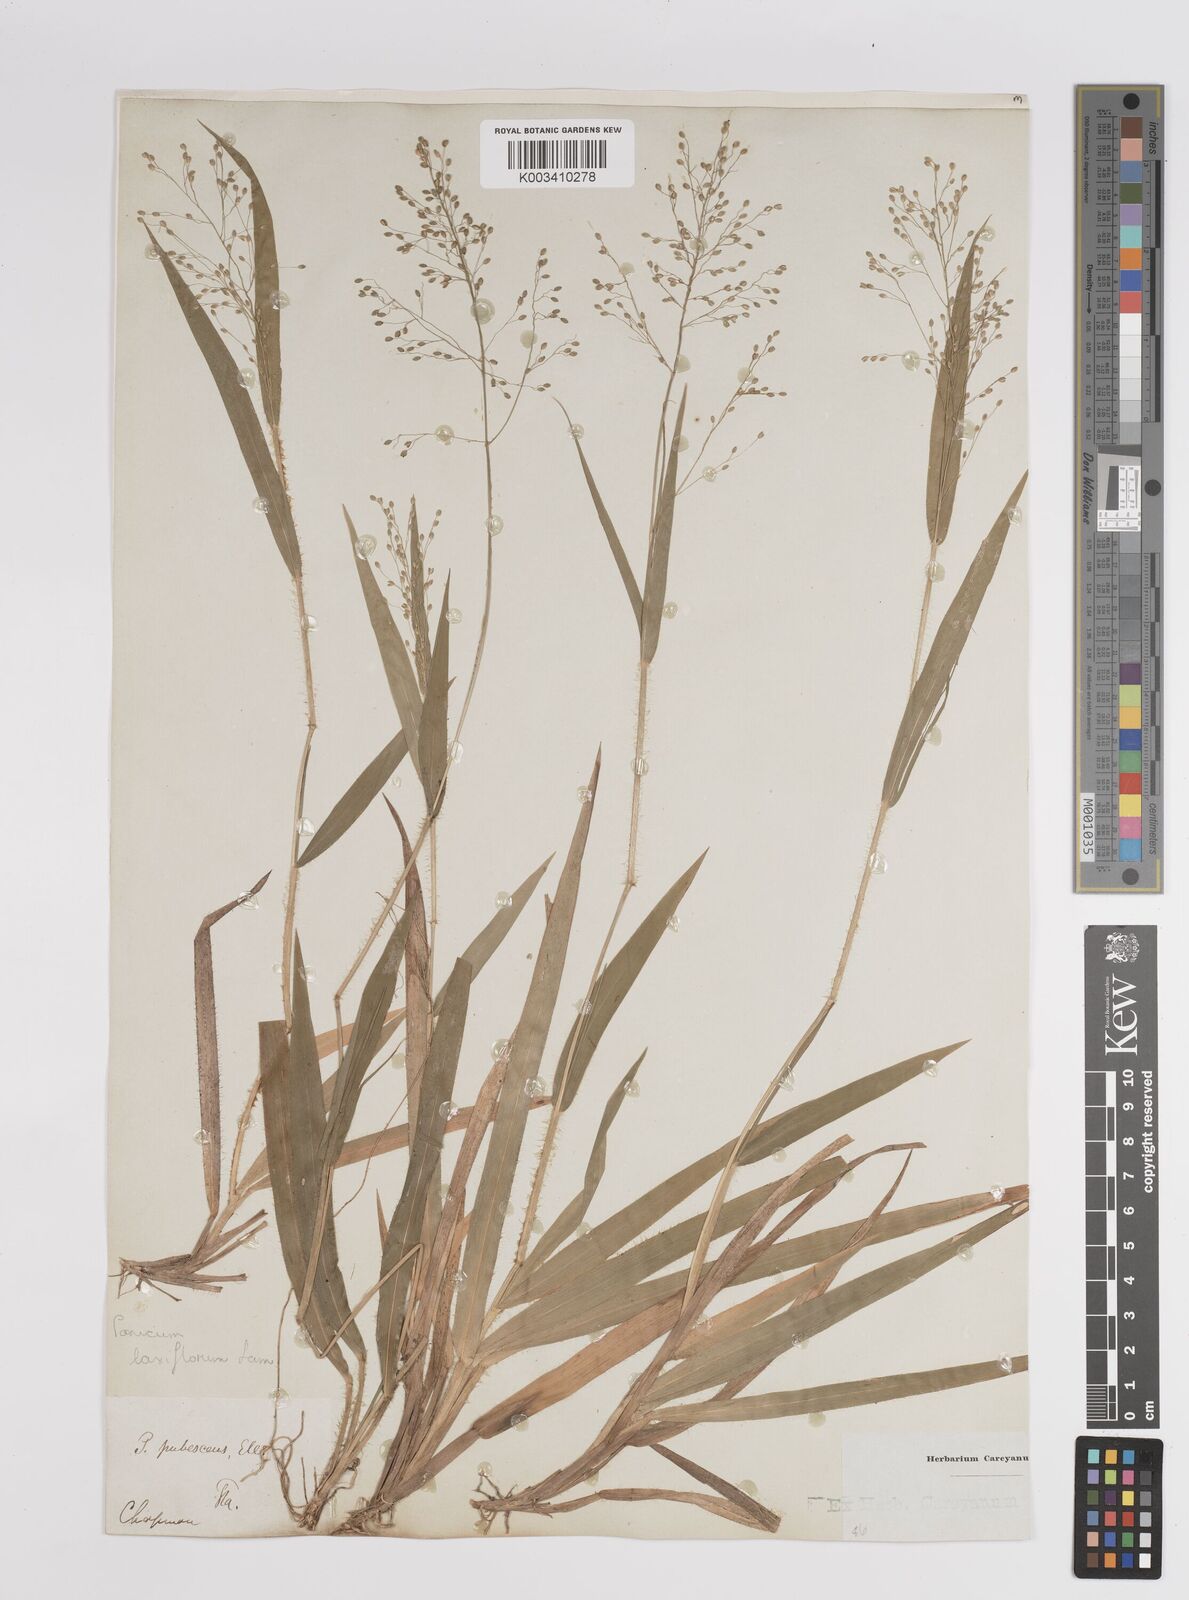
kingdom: Plantae
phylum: Tracheophyta
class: Liliopsida
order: Poales
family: Poaceae
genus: Dichanthelium
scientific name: Dichanthelium laxiflorum
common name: Soft-tuft panic grass
